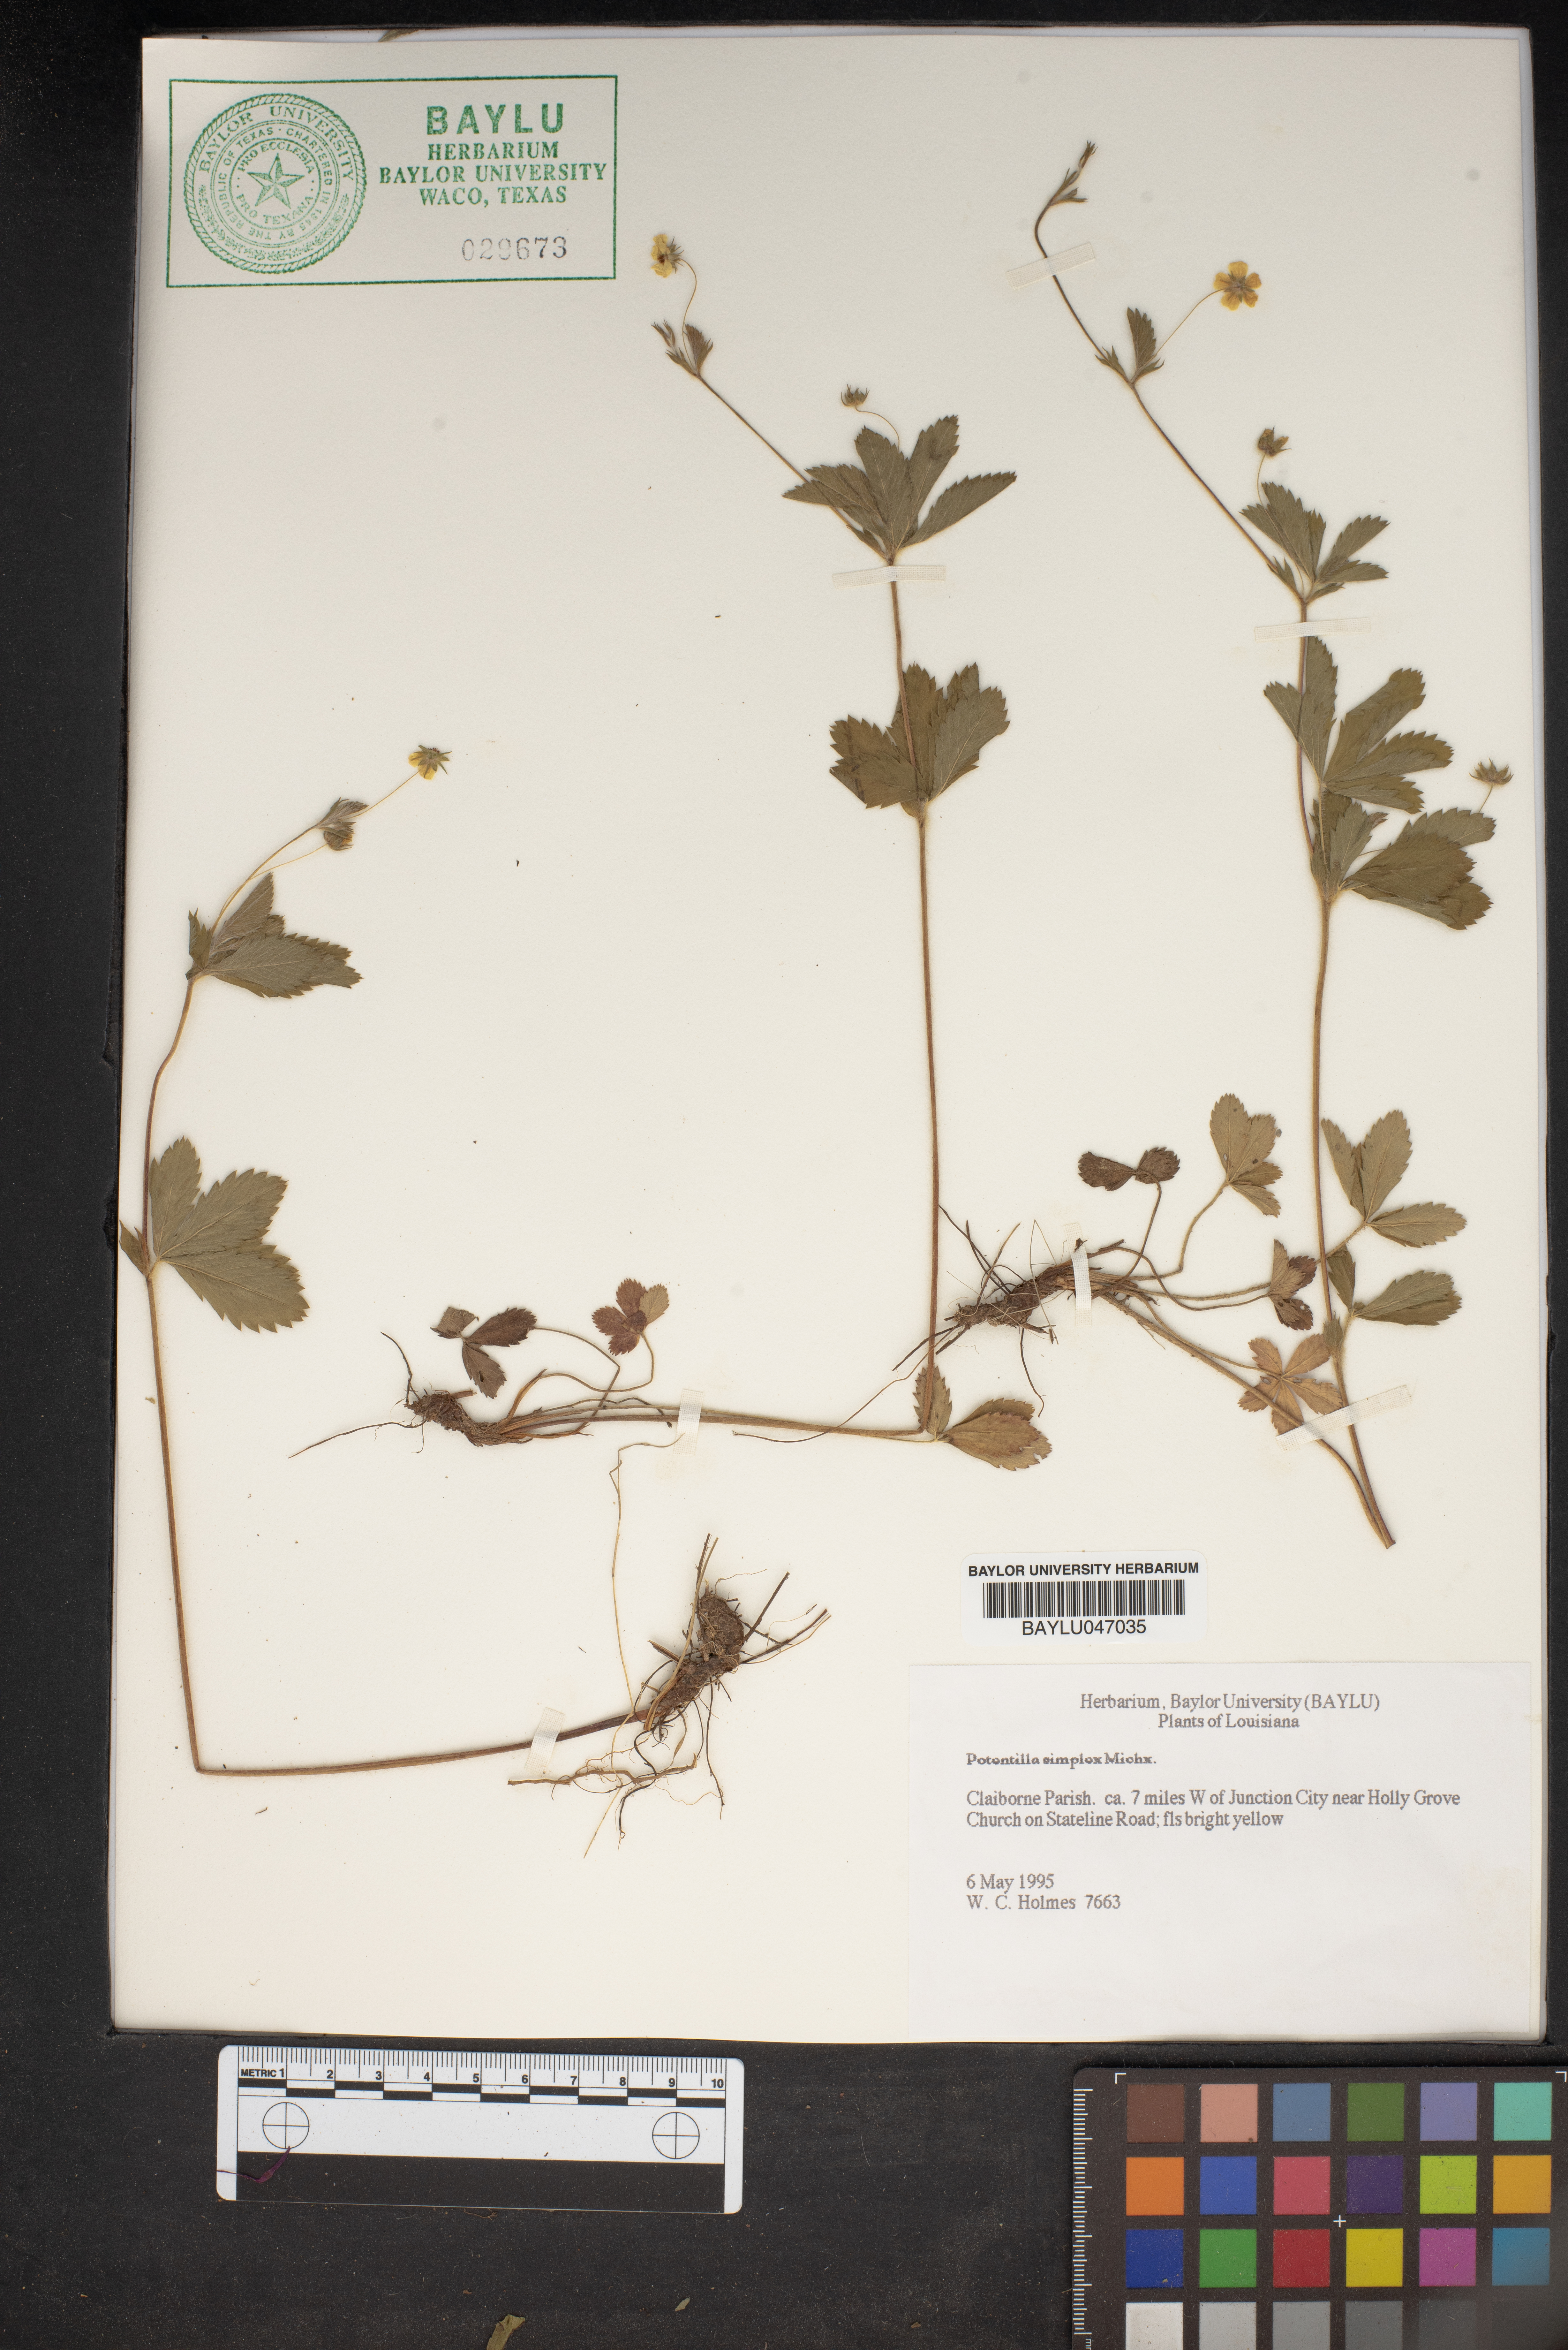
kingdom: Plantae
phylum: Tracheophyta
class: Magnoliopsida
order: Rosales
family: Rosaceae
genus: Potentilla
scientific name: Potentilla simplex
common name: Old field cinquefoil
